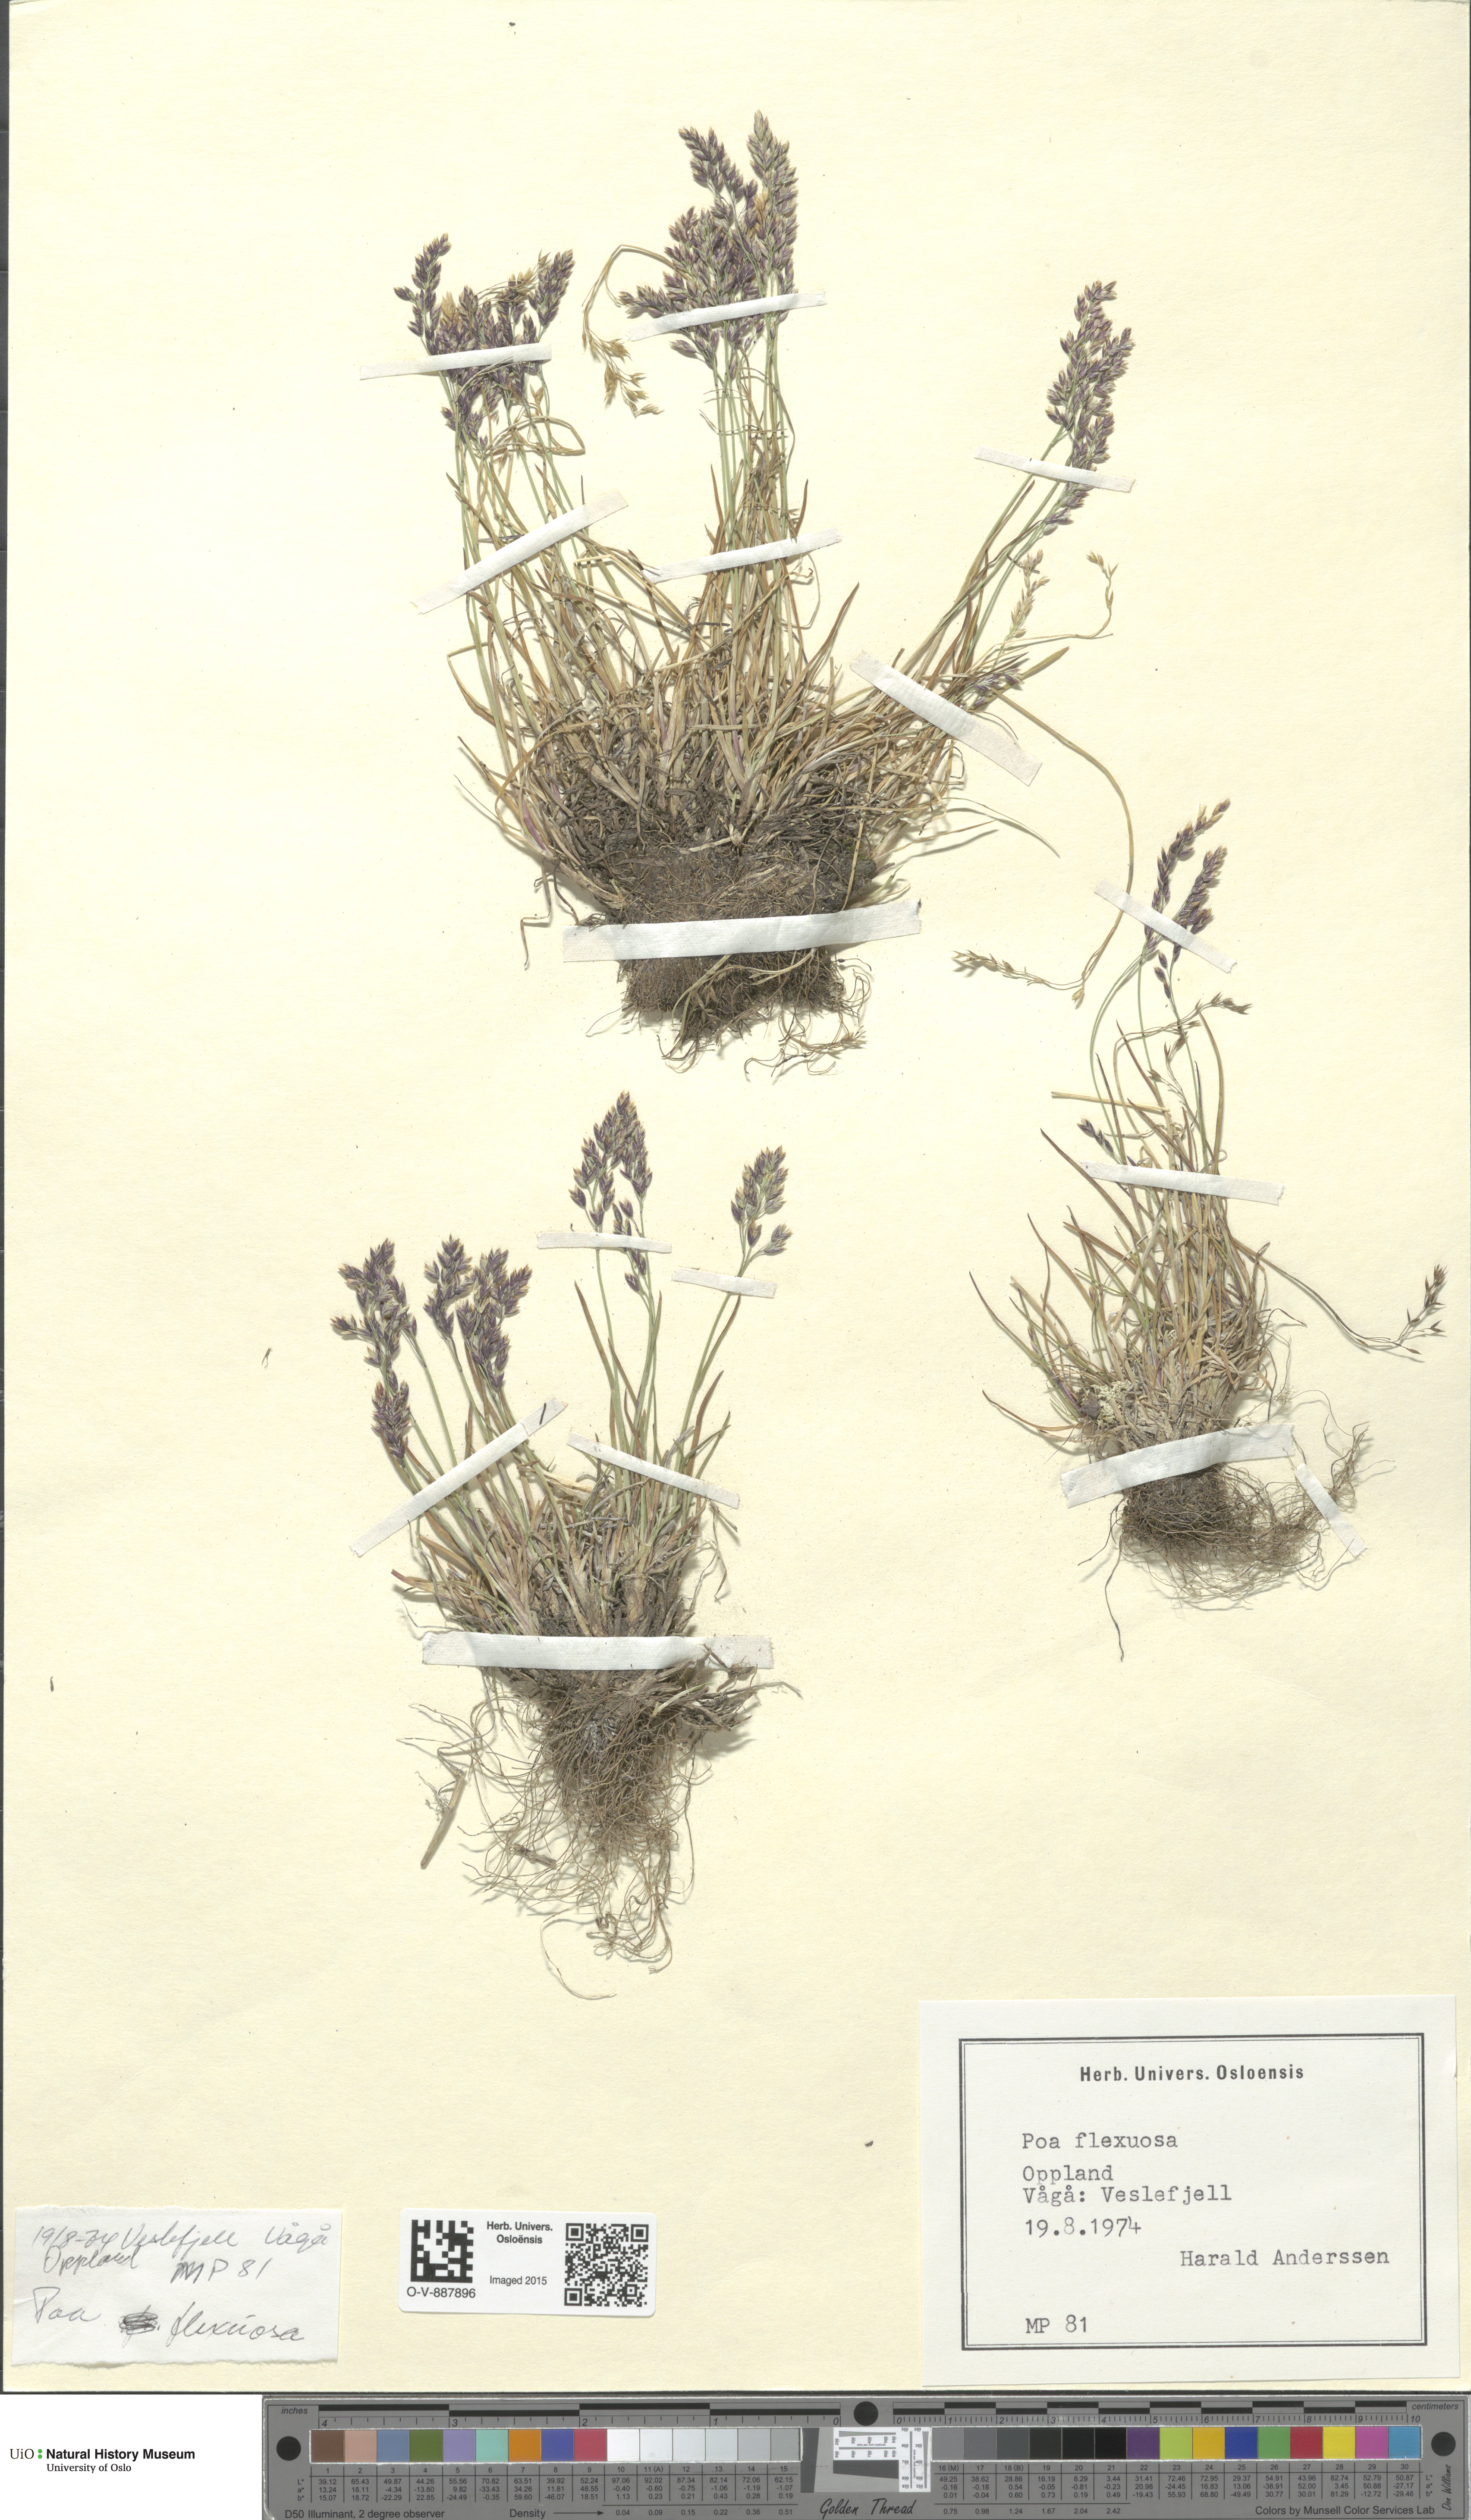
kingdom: Plantae
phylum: Tracheophyta
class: Liliopsida
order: Poales
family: Poaceae
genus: Poa
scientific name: Poa flexuosa
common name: Wavy meadow-grass
